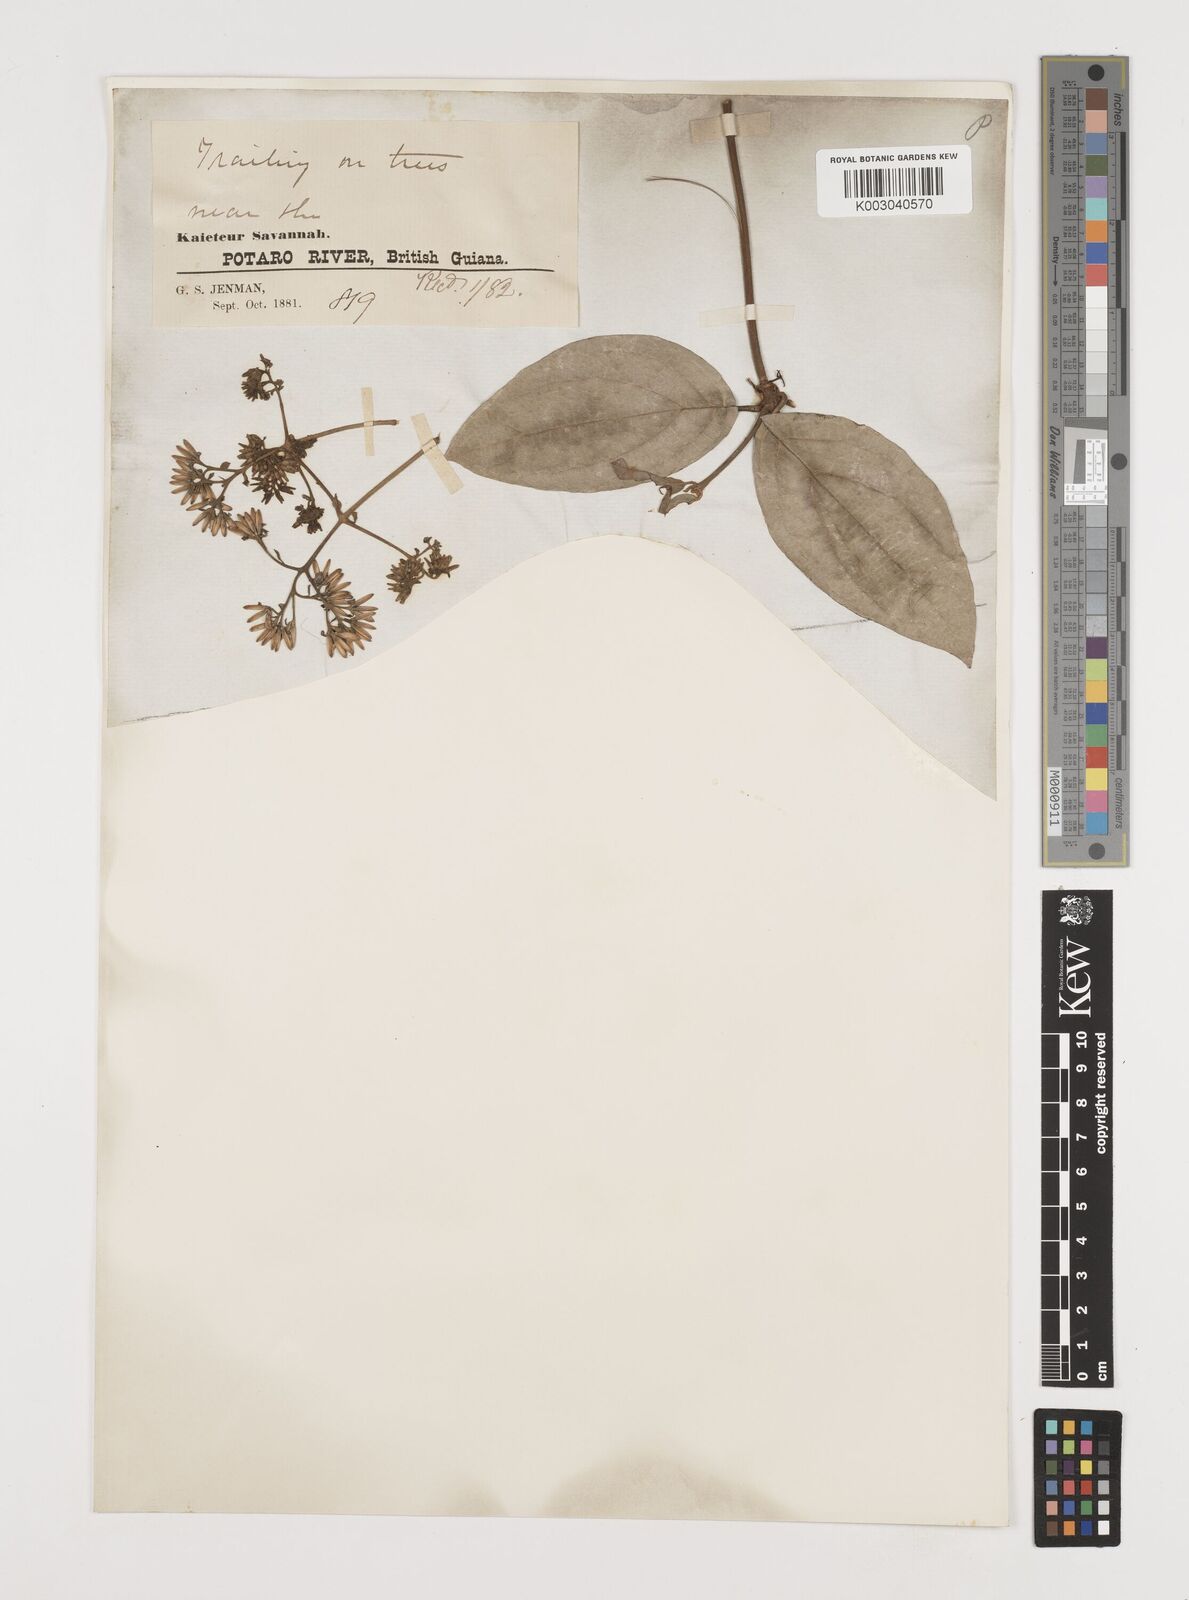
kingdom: Plantae
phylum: Tracheophyta
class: Magnoliopsida
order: Asterales
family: Asteraceae
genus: Mikania
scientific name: Mikania parviflora
